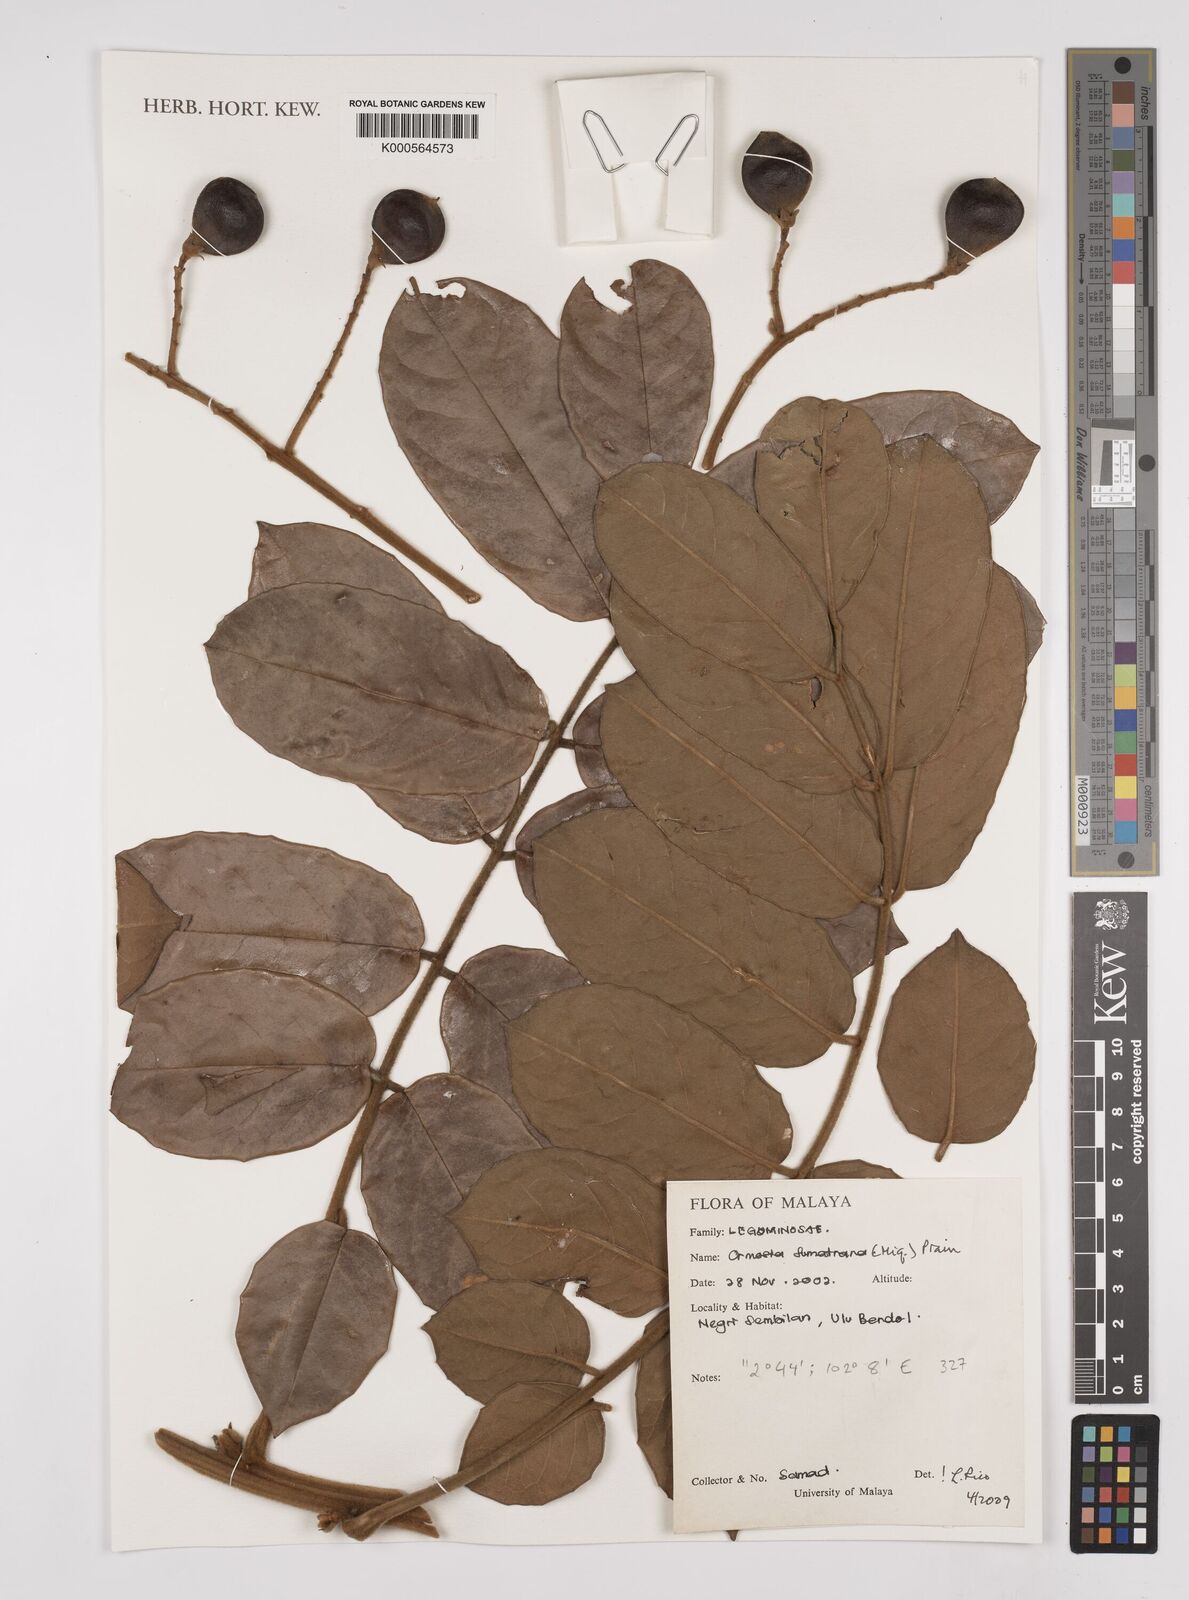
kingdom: Plantae
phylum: Tracheophyta
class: Magnoliopsida
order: Fabales
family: Fabaceae
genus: Ormosia
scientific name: Ormosia sumatrana
